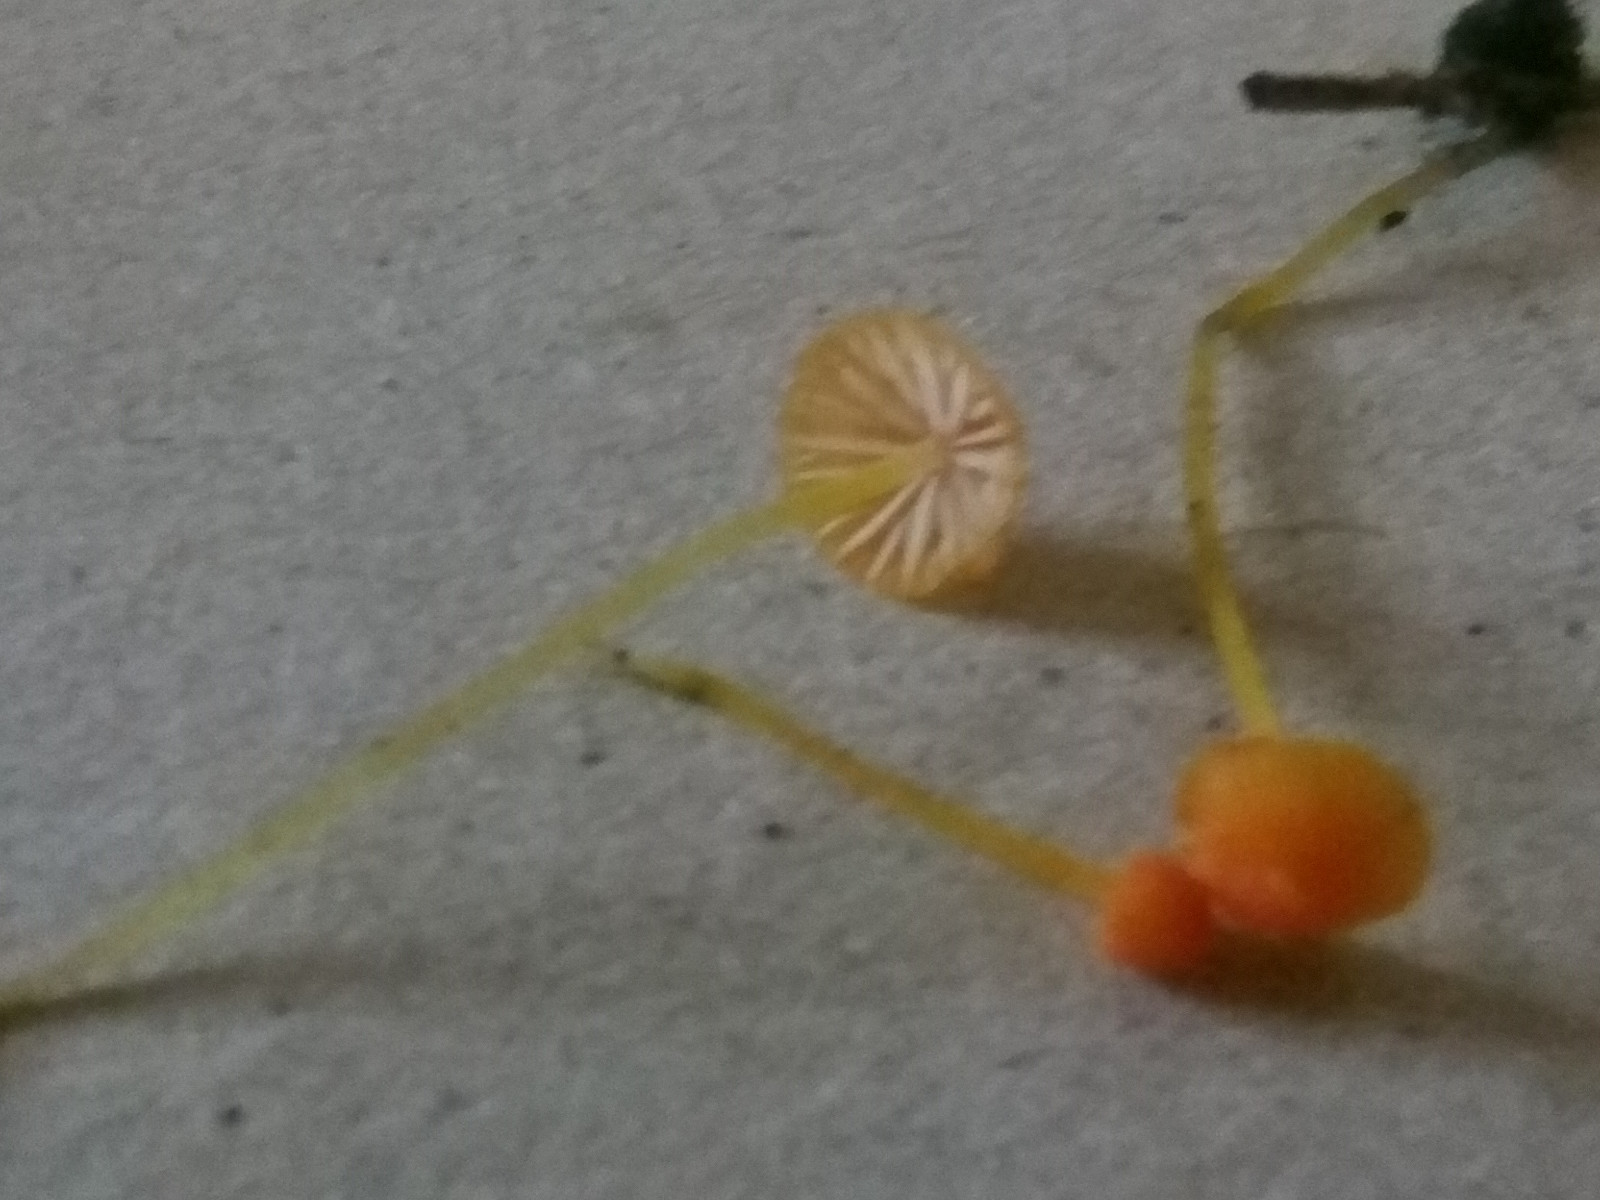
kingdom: Fungi
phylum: Basidiomycota
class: Agaricomycetes
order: Agaricales
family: Mycenaceae
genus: Mycena
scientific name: Mycena acicula
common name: orange huesvamp
